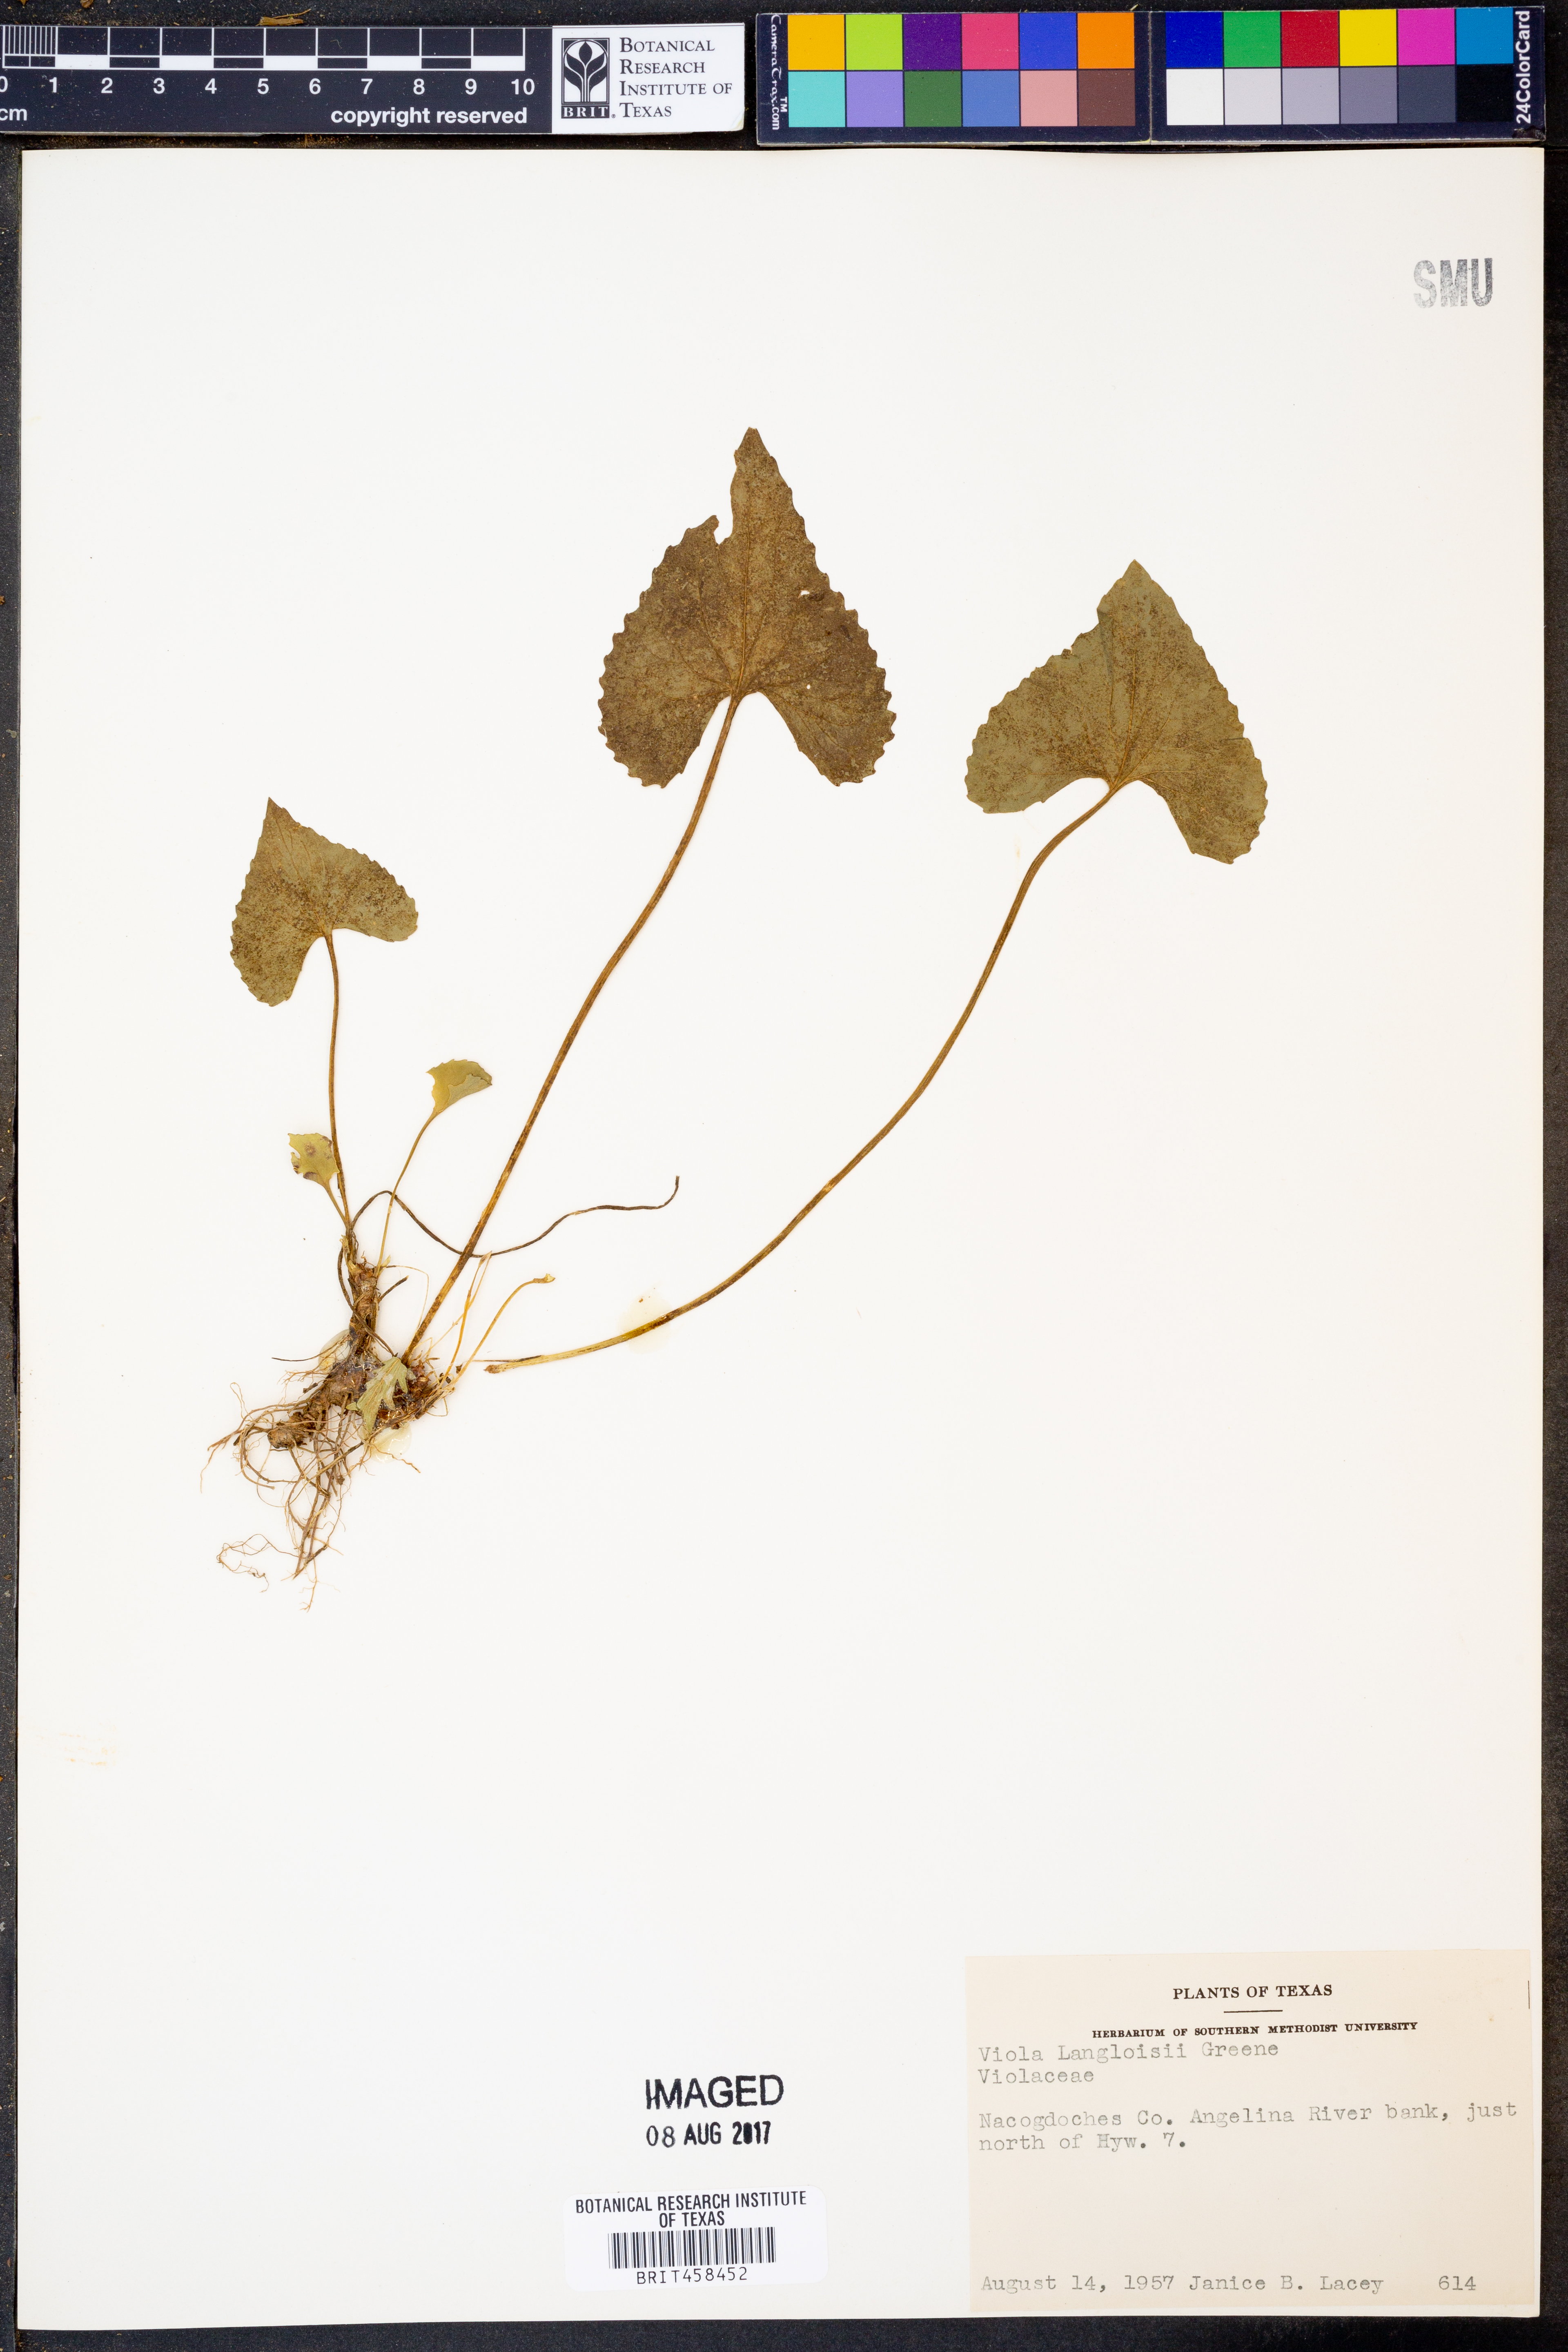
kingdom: Plantae
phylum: Tracheophyta
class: Magnoliopsida
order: Malpighiales
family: Violaceae
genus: Viola
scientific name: Viola langloisii
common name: Langlois' violet
